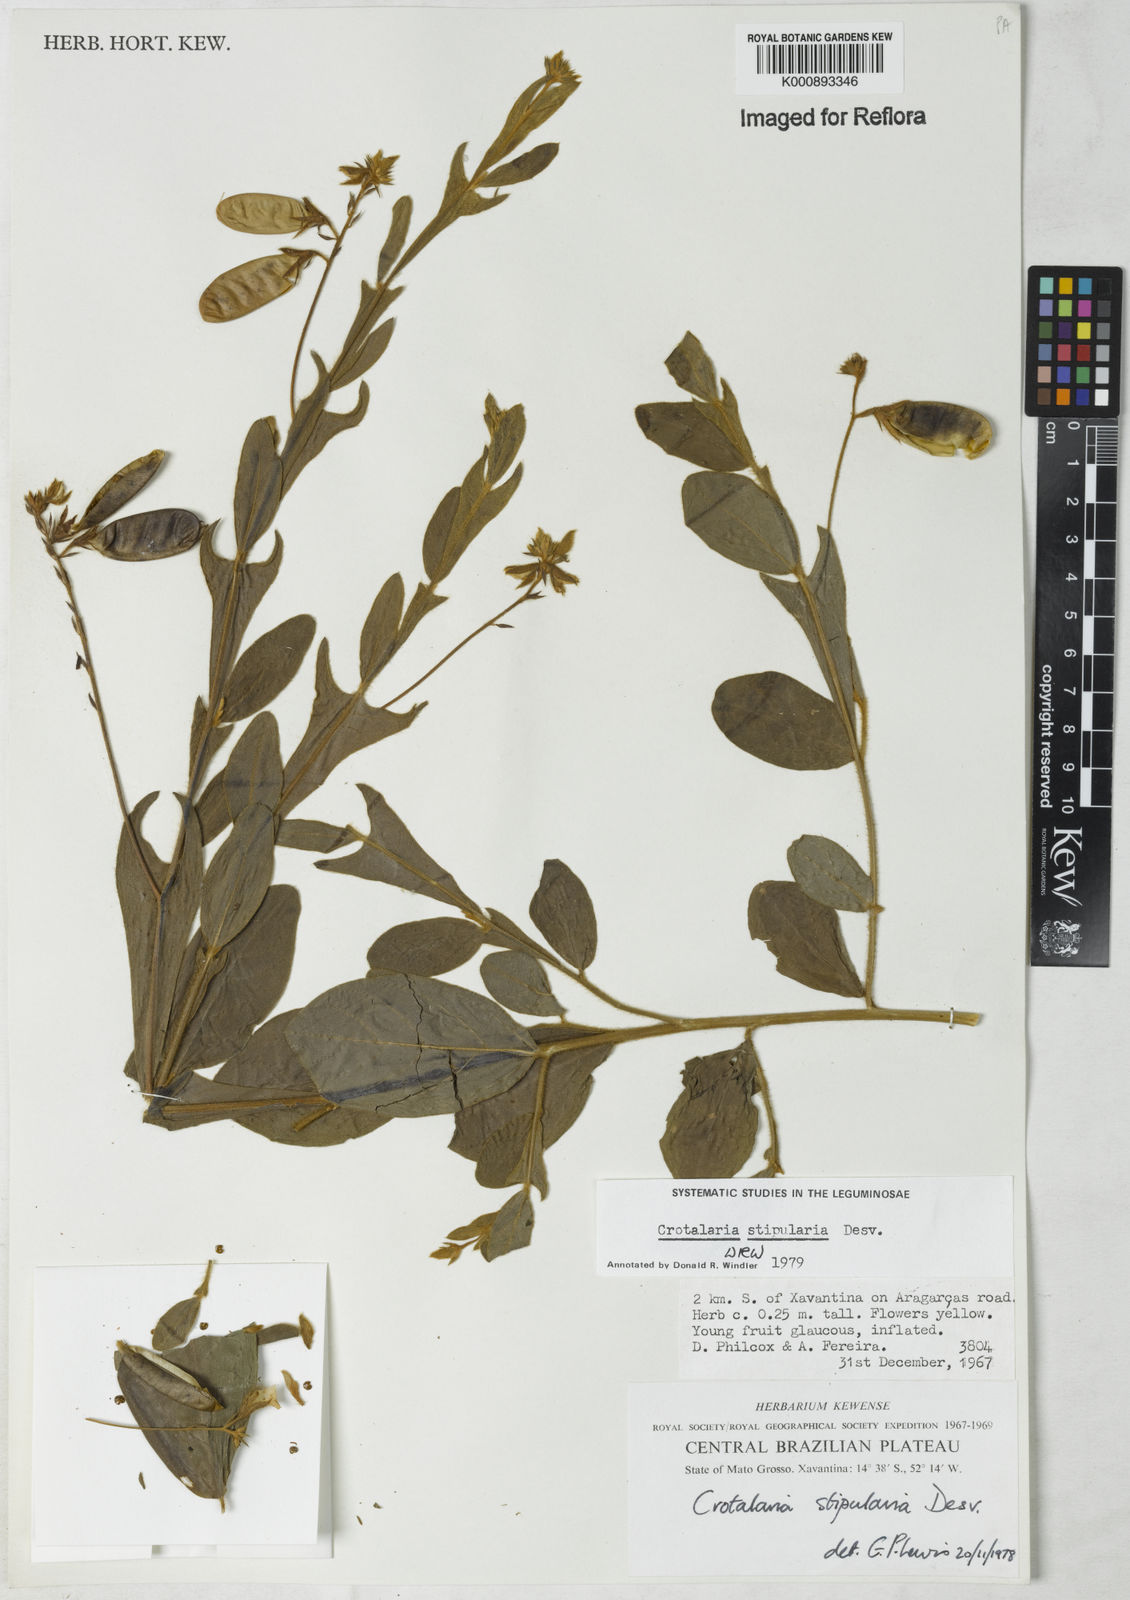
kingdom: Plantae
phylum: Tracheophyta
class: Magnoliopsida
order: Fabales
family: Fabaceae
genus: Crotalaria
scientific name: Crotalaria stipularia
